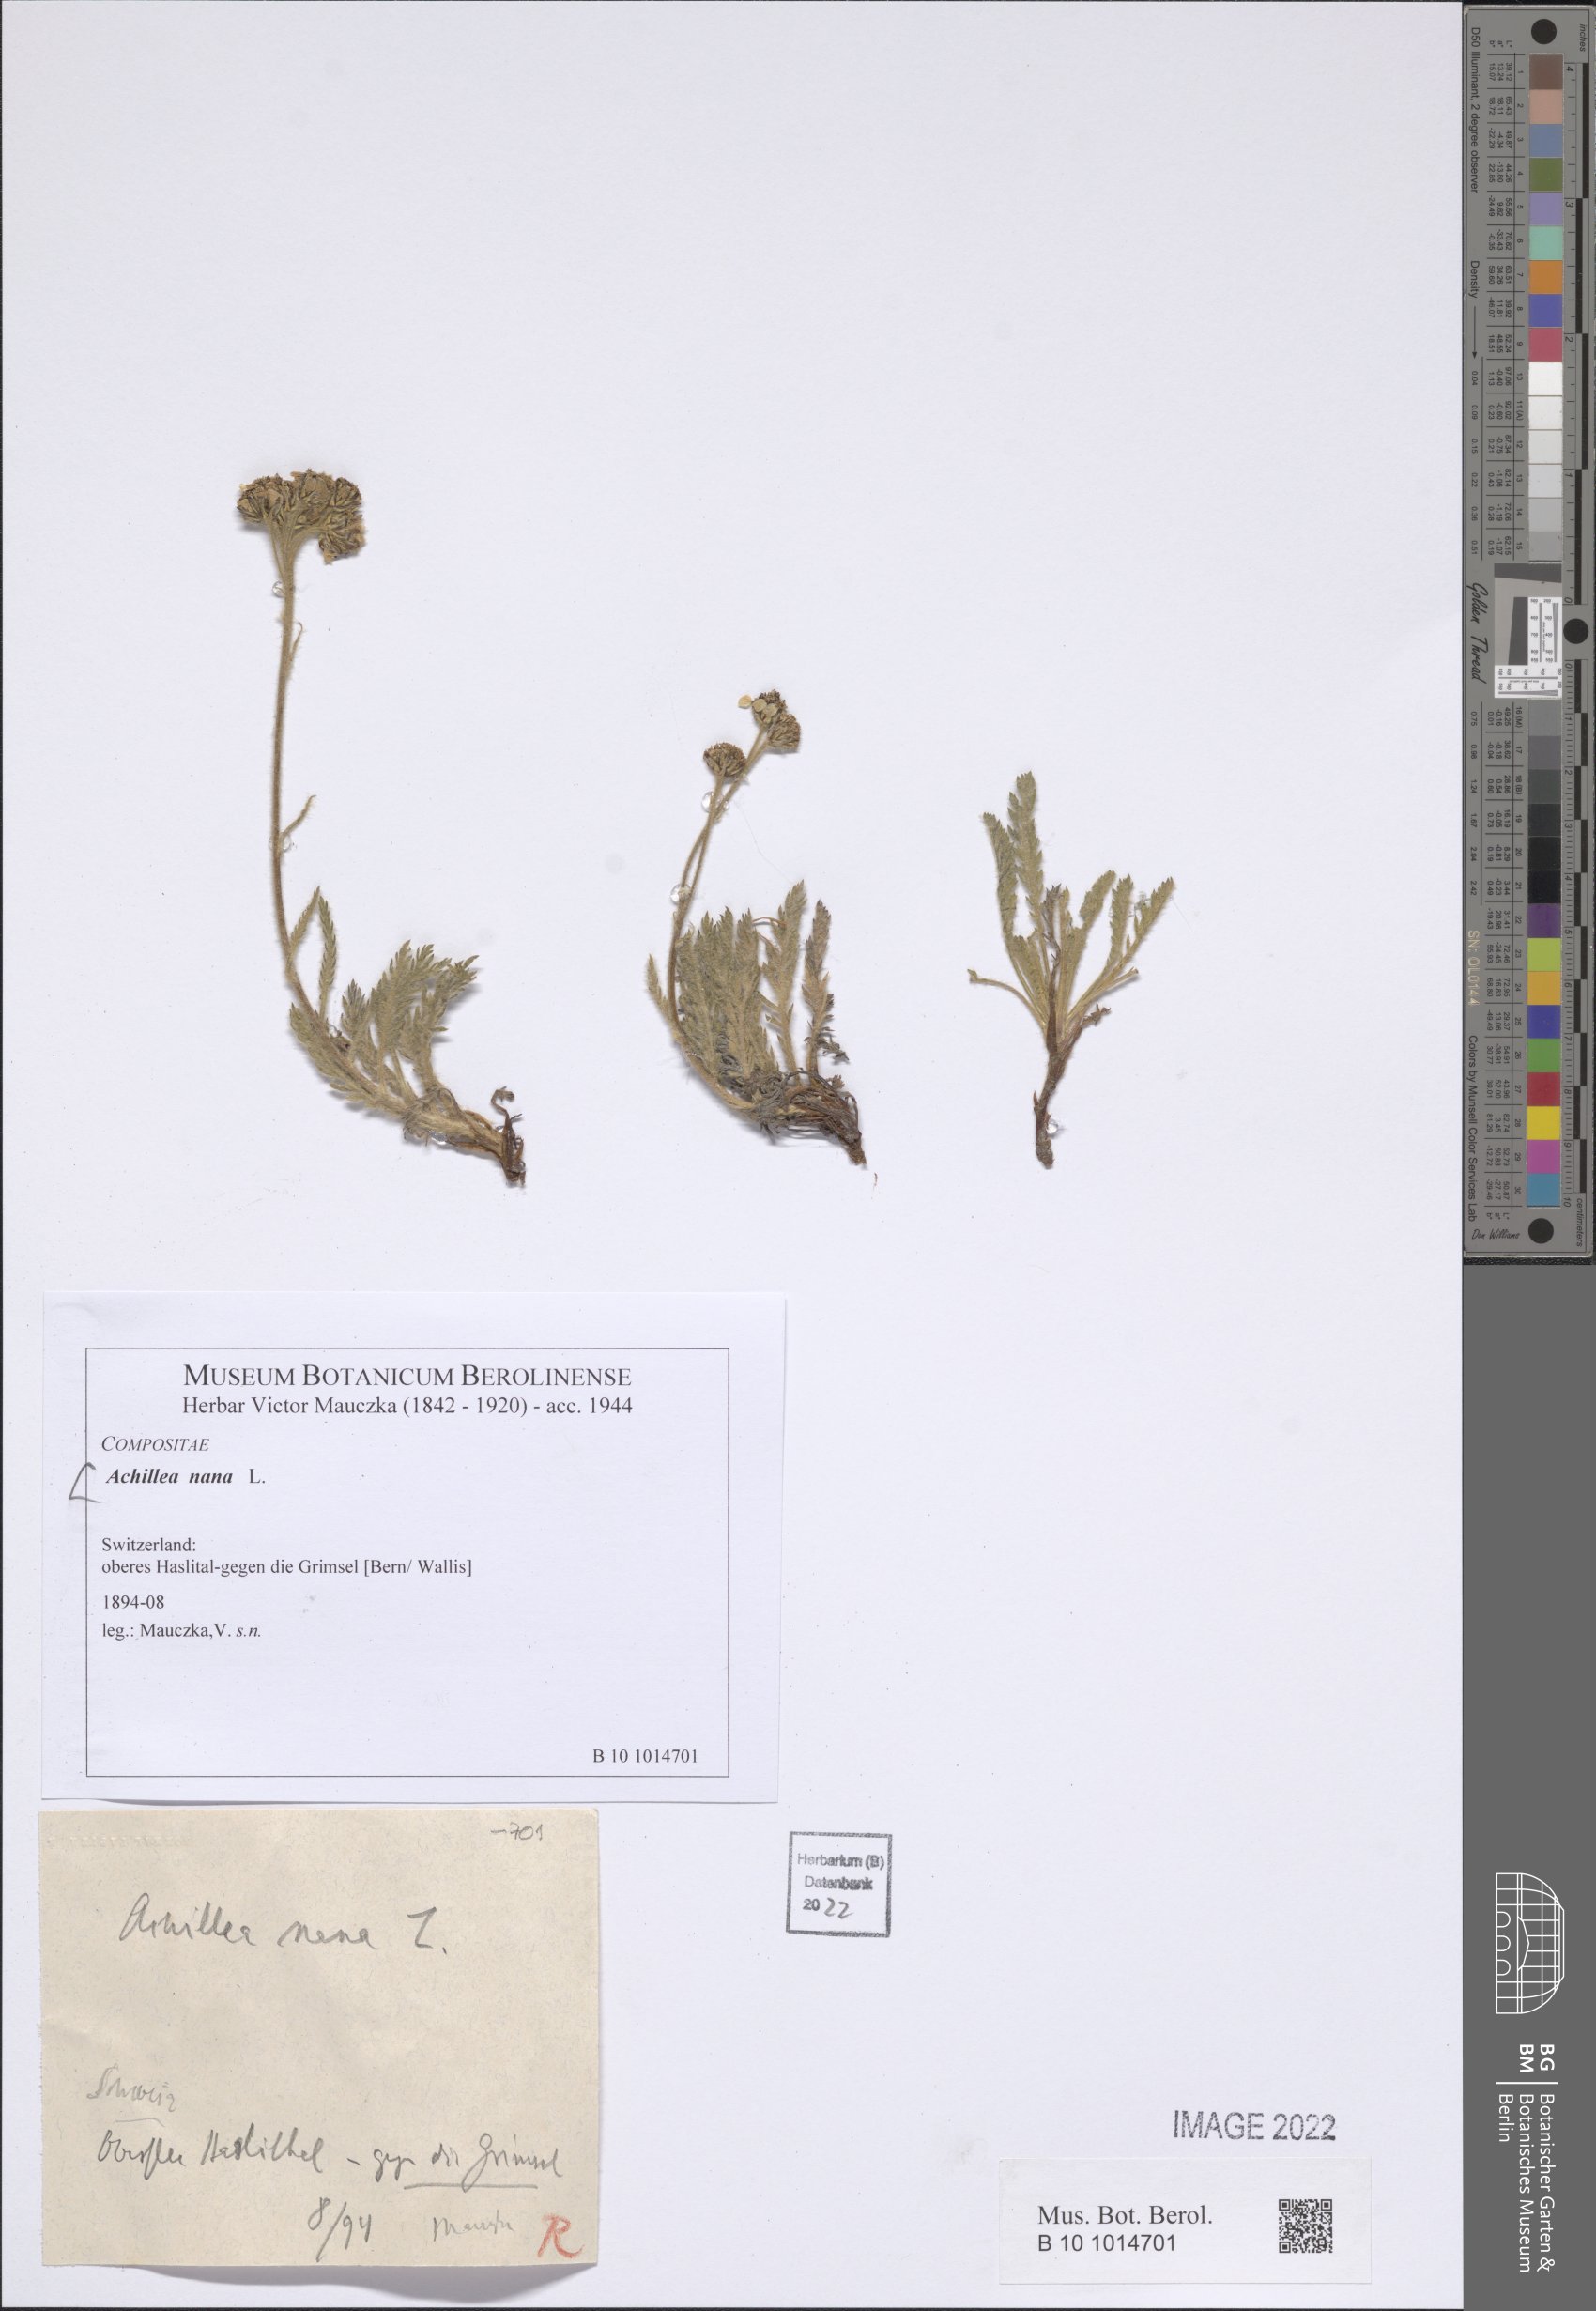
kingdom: Plantae
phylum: Tracheophyta
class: Magnoliopsida
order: Asterales
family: Asteraceae
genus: Achillea
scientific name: Achillea nana
